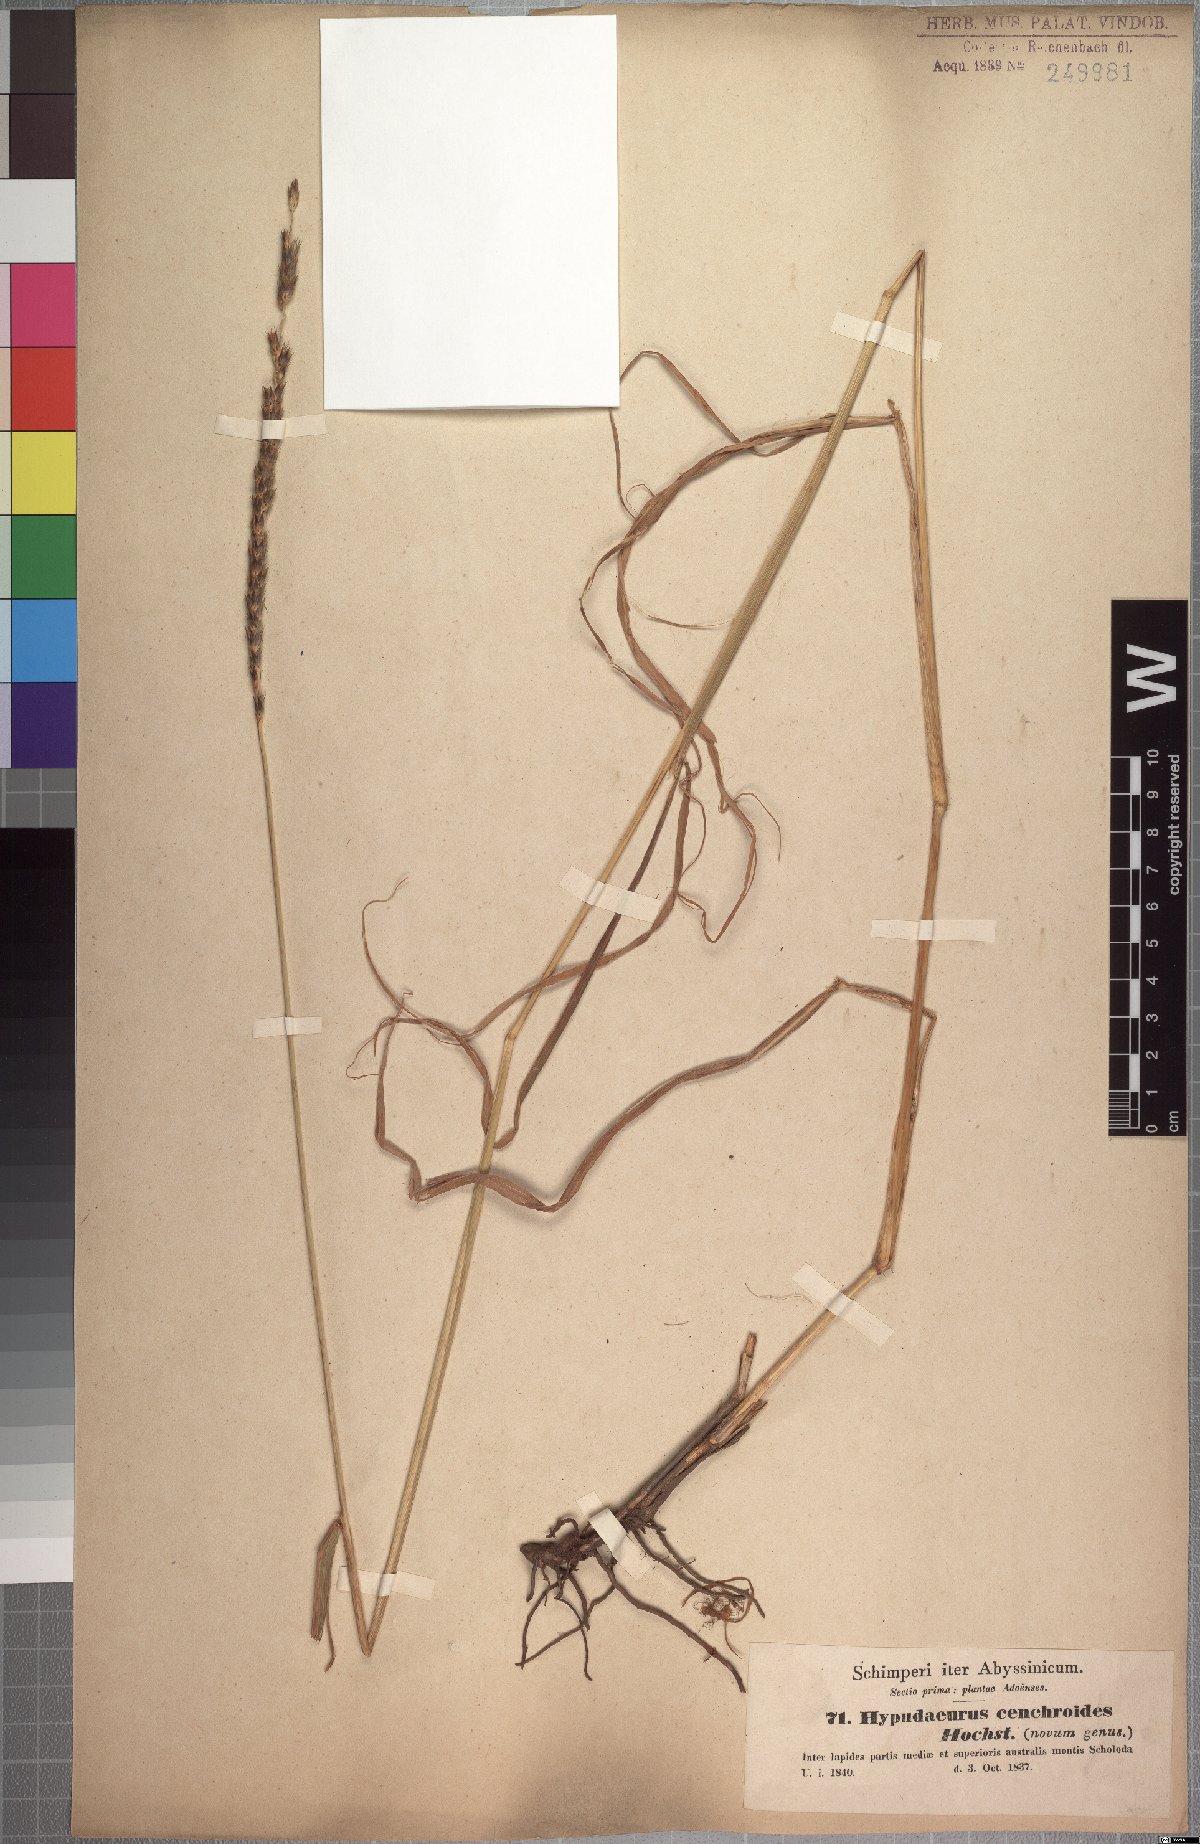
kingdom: Plantae
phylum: Tracheophyta
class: Liliopsida
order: Poales
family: Poaceae
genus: Anthephora
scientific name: Anthephora pubescens
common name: Wool grass
